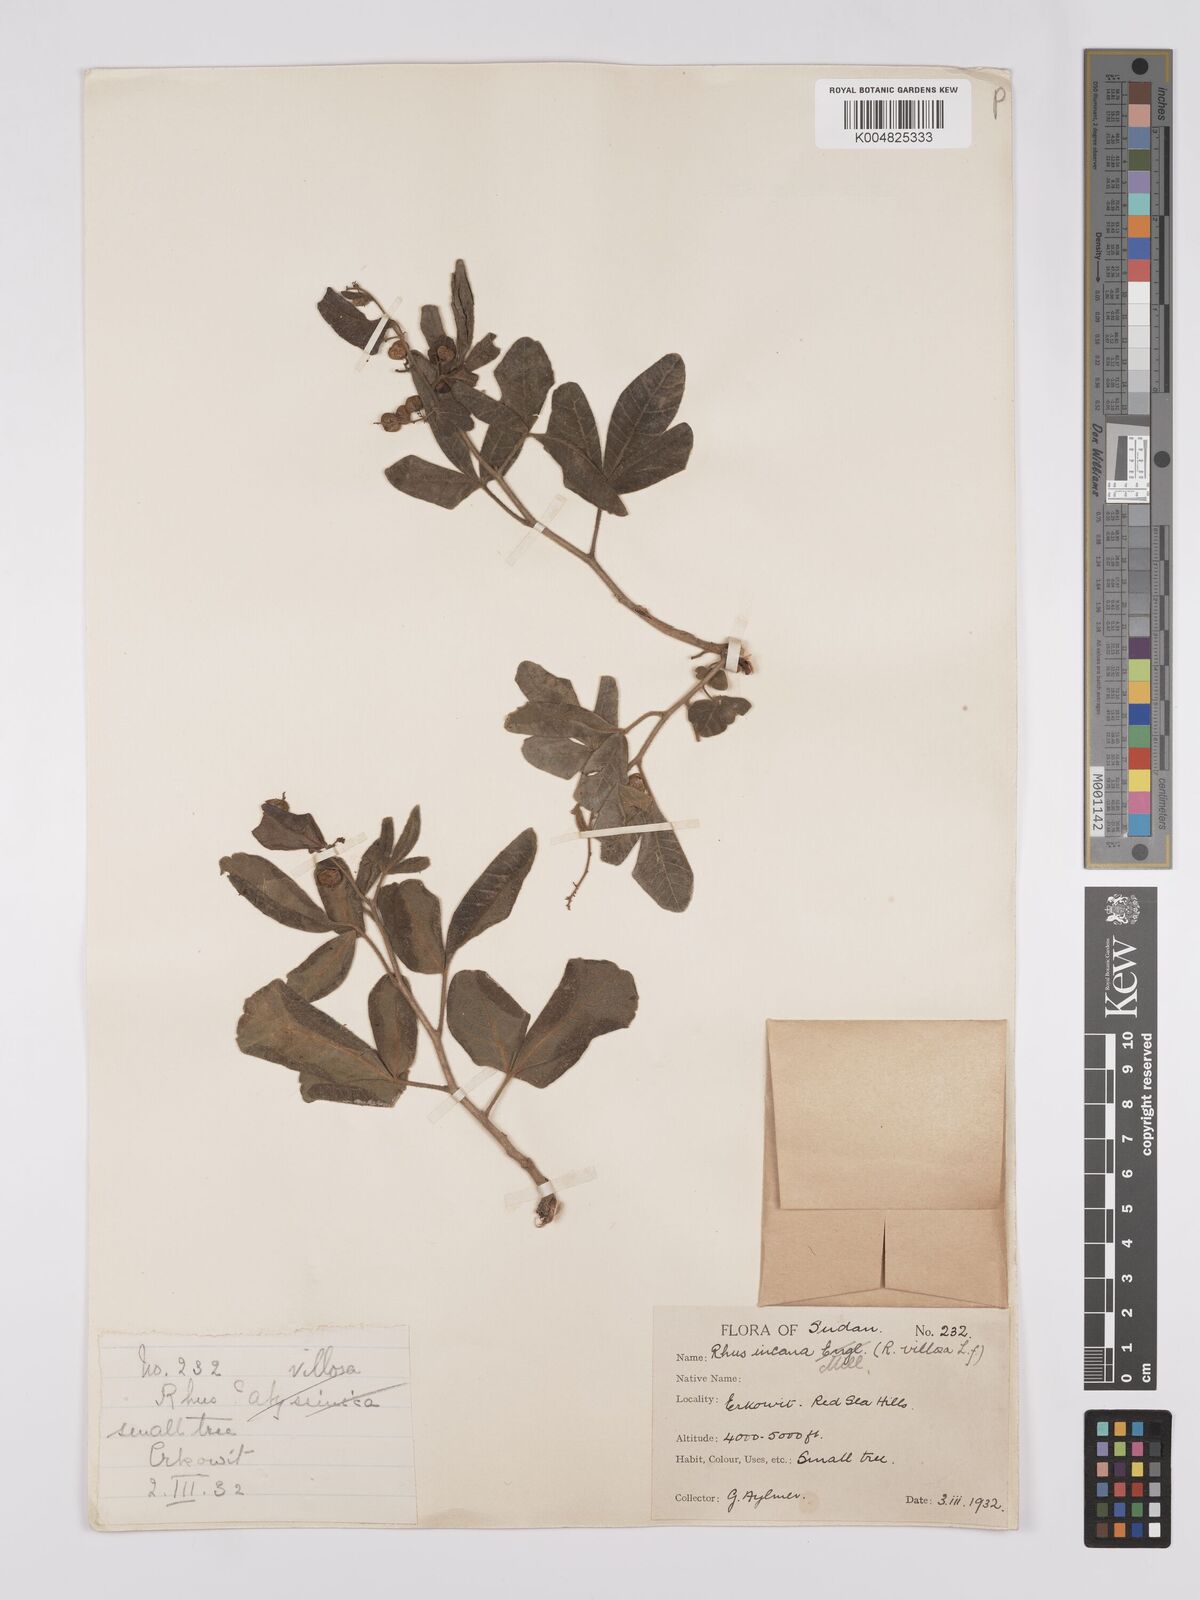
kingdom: Plantae
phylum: Tracheophyta
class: Magnoliopsida
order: Sapindales
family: Anacardiaceae
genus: Searsia
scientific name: Searsia flexicaulis
